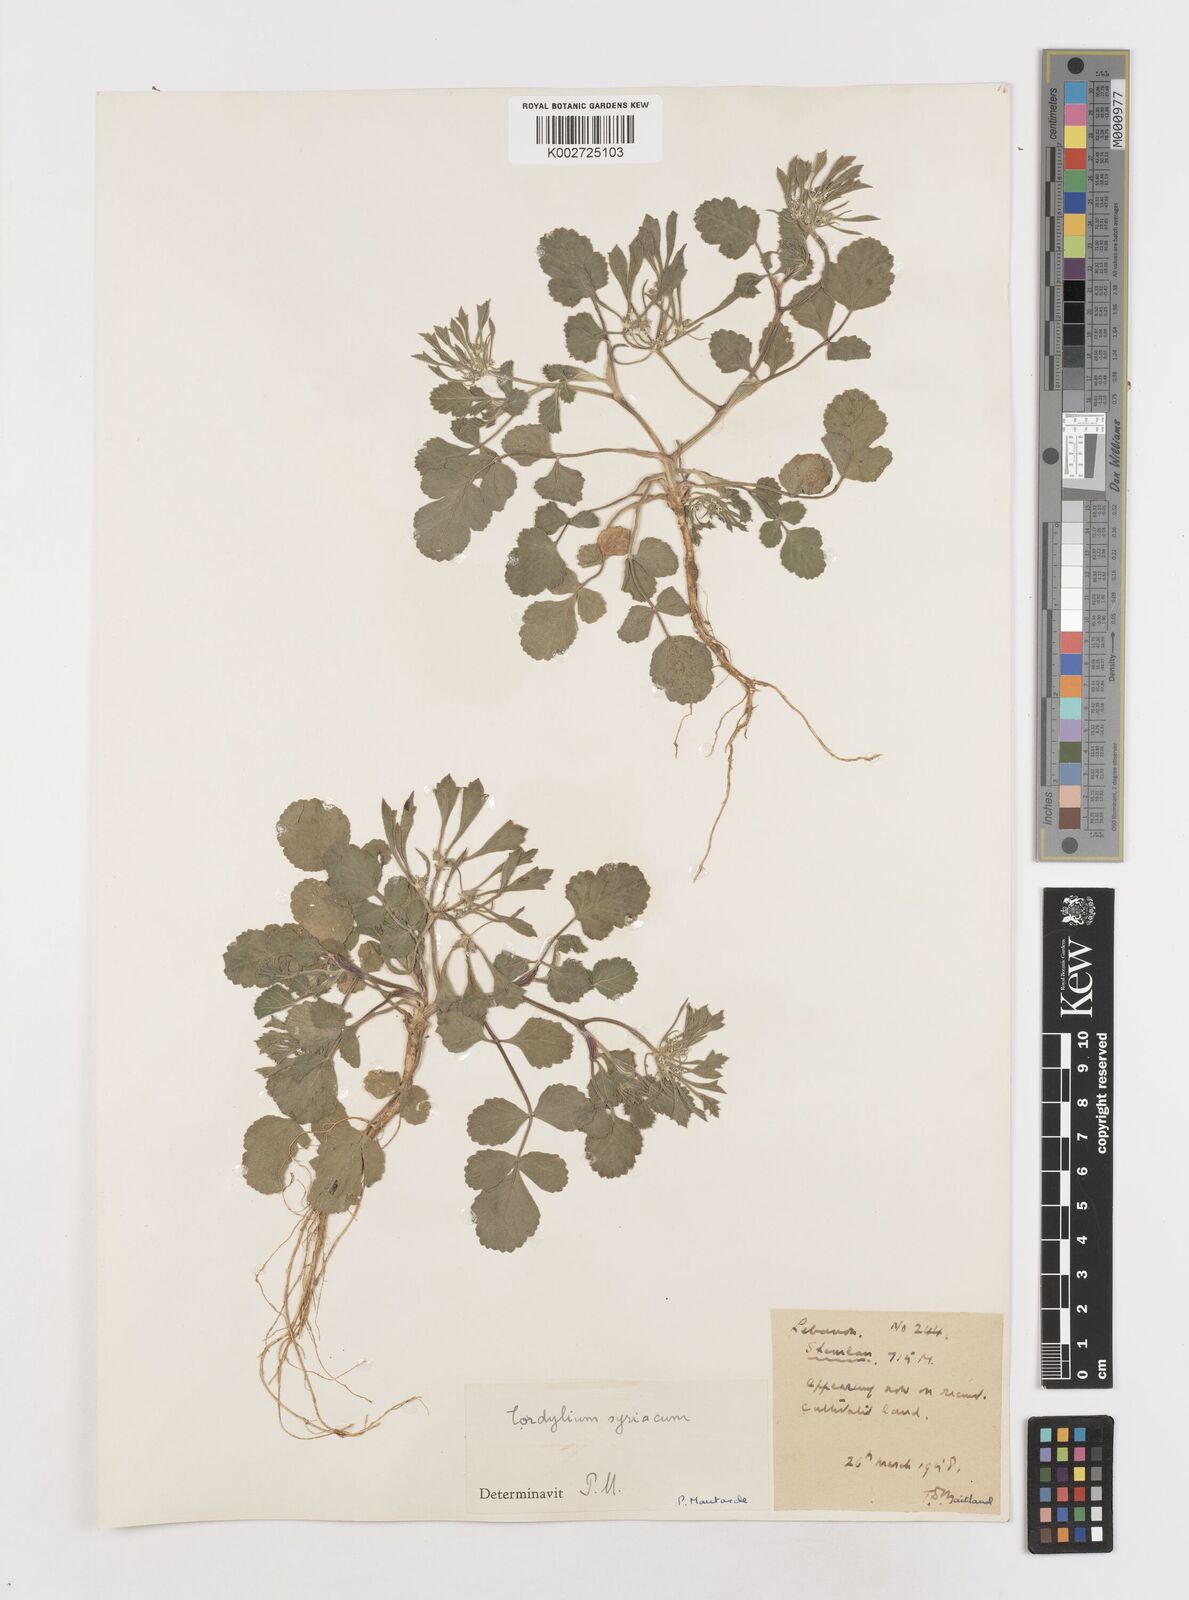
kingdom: Plantae
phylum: Tracheophyta
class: Magnoliopsida
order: Apiales
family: Apiaceae
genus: Tordylium
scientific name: Tordylium syriacum
